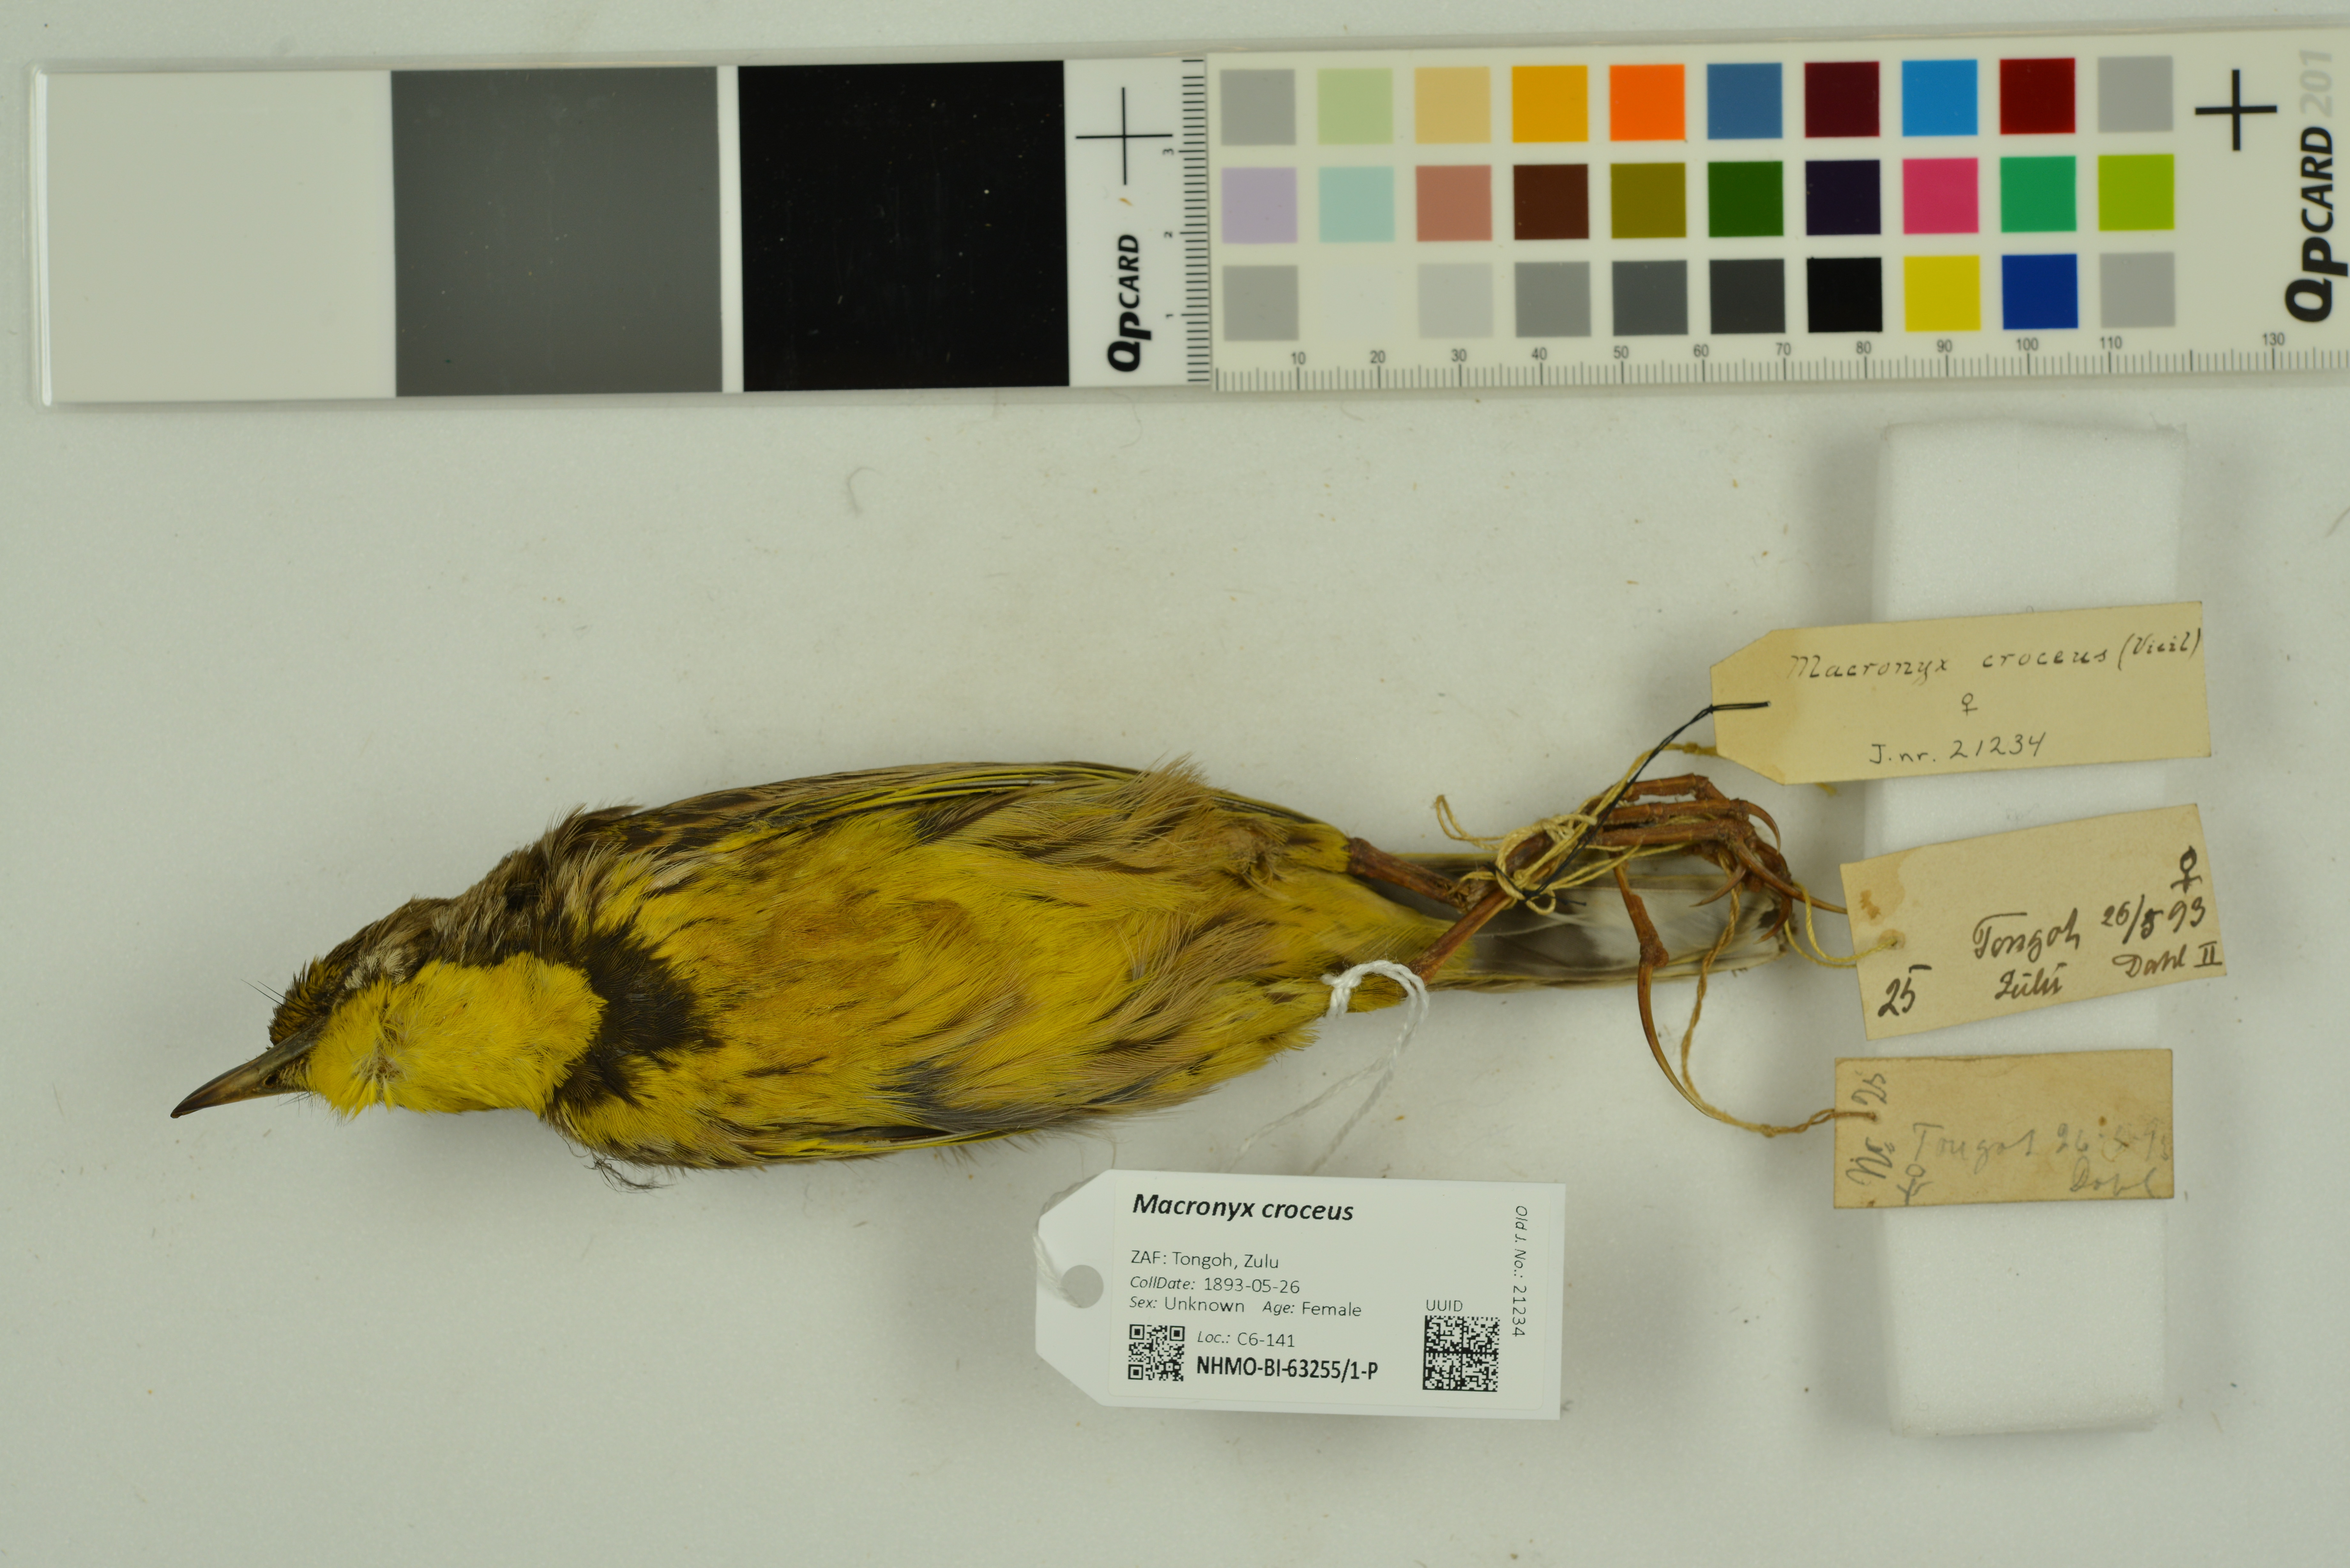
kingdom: Animalia
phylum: Chordata
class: Aves
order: Passeriformes
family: Motacillidae
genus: Macronyx
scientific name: Macronyx croceus
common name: Yellow-throated longclaw
